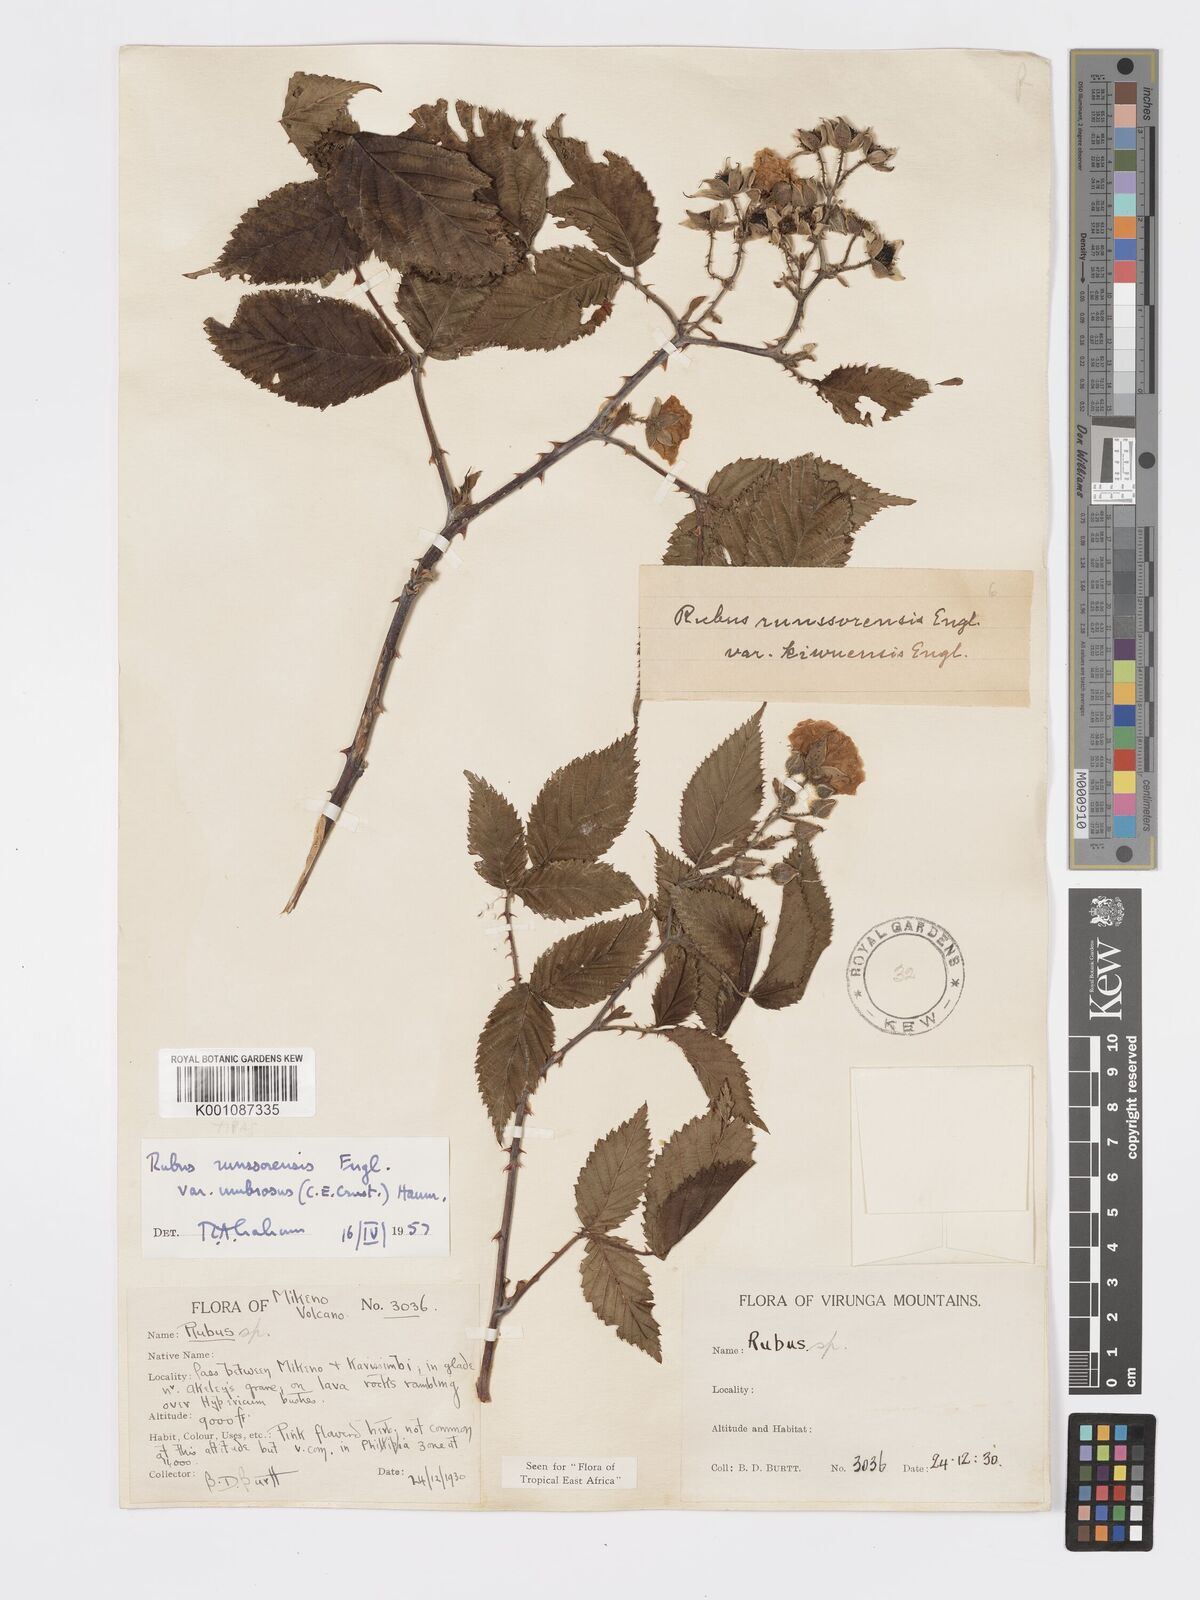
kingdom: Plantae
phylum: Tracheophyta
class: Magnoliopsida
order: Rosales
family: Rosaceae
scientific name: Rosaceae
